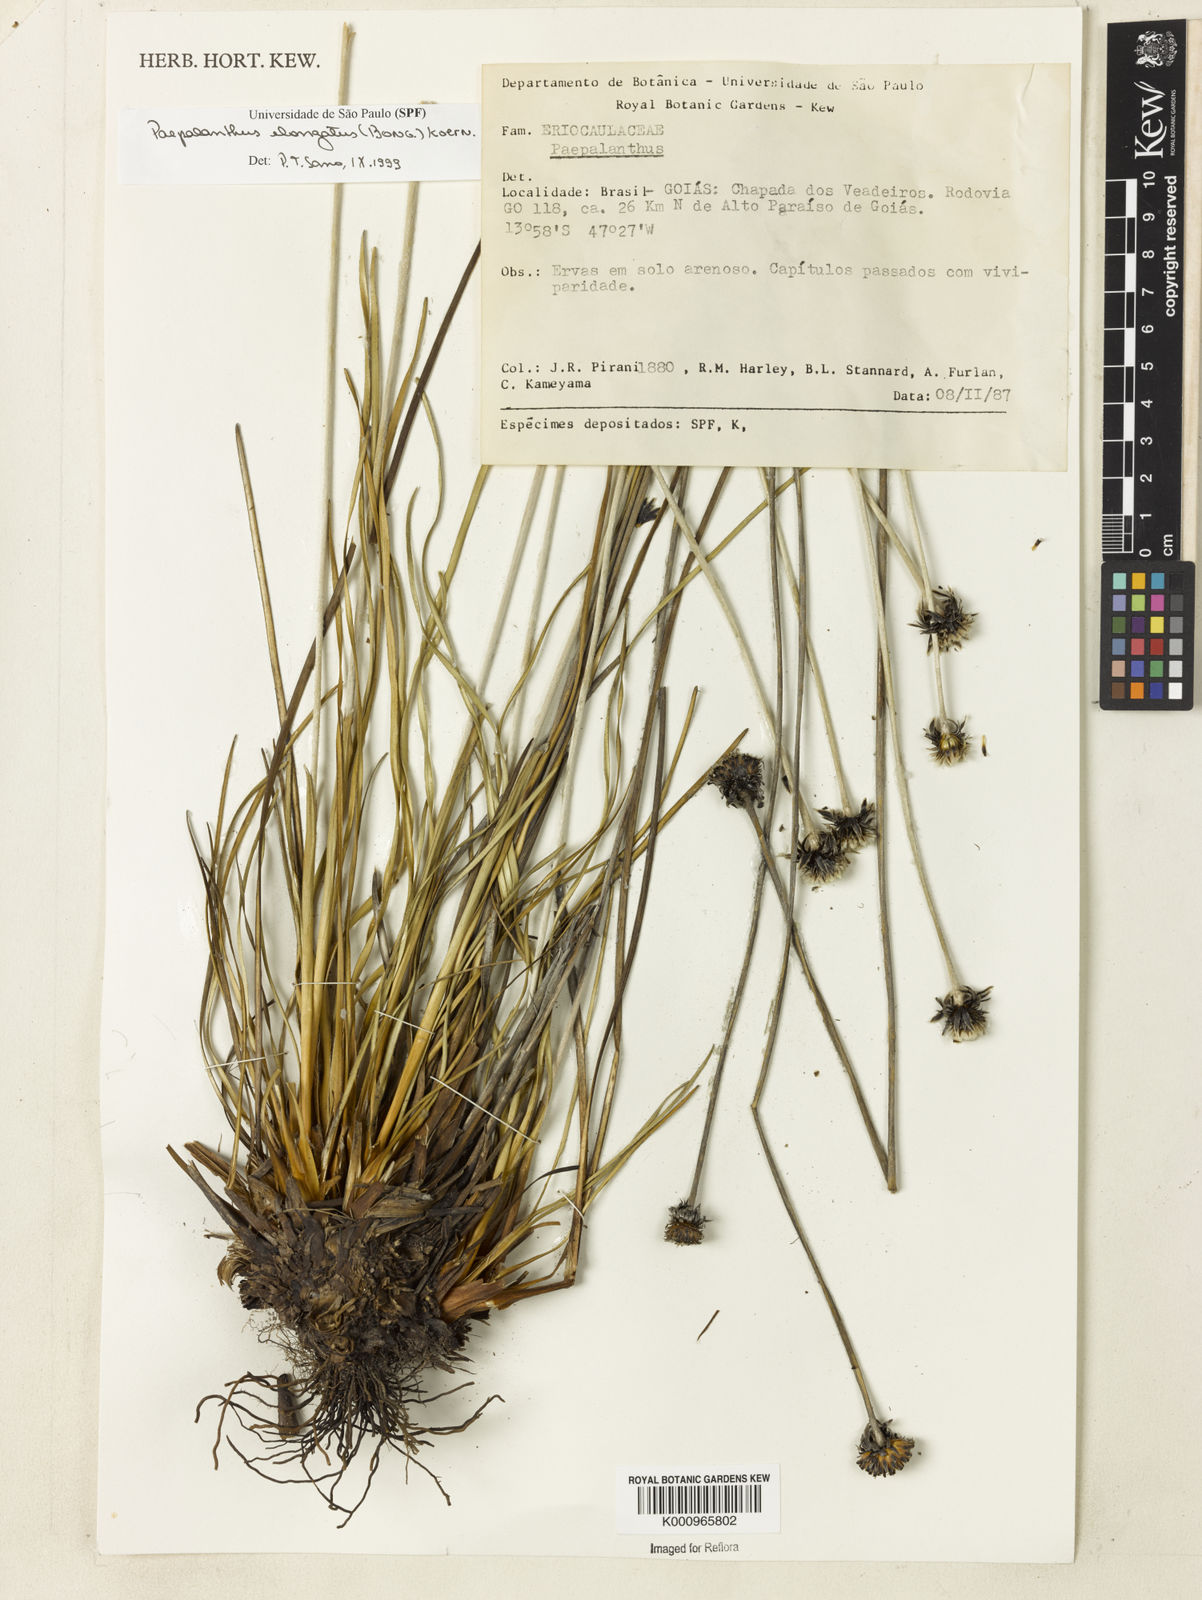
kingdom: Plantae
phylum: Tracheophyta
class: Liliopsida
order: Poales
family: Eriocaulaceae
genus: Paepalanthus
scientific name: Paepalanthus
